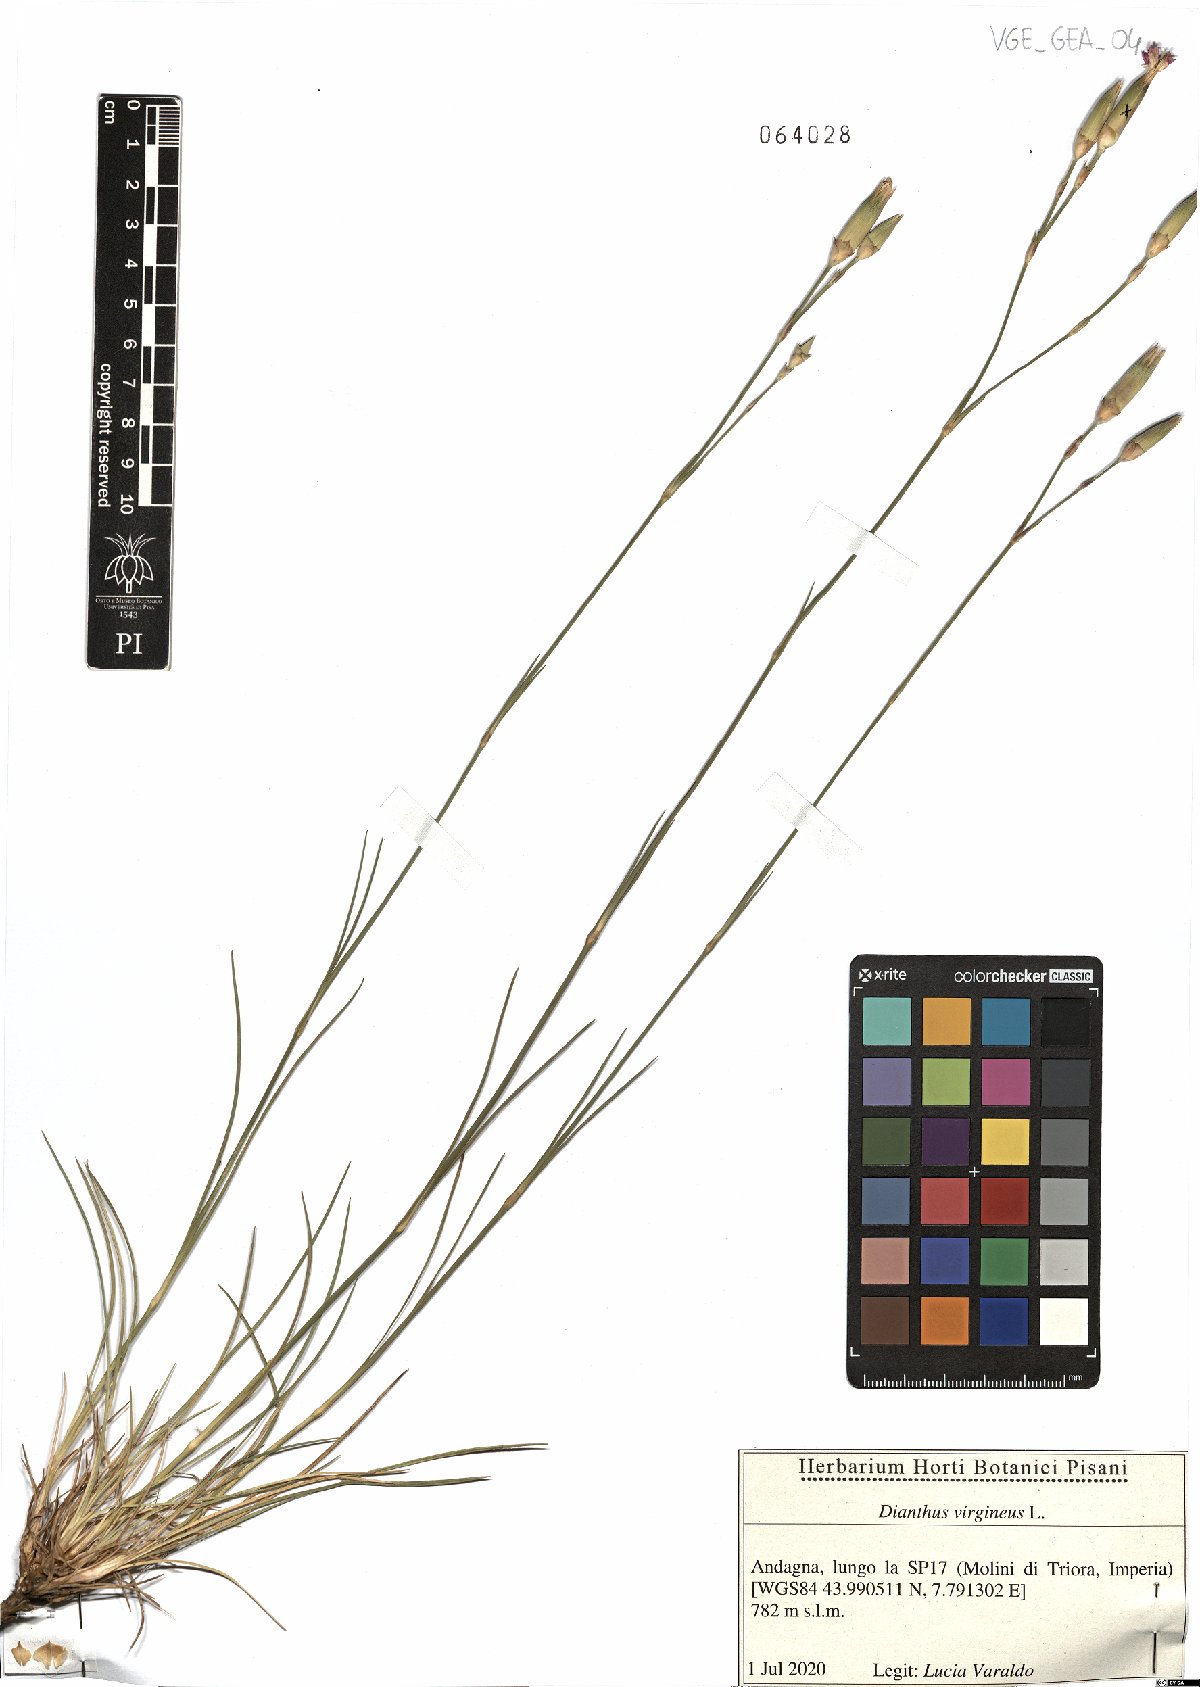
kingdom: Plantae
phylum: Tracheophyta
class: Magnoliopsida
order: Caryophyllales
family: Caryophyllaceae
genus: Dianthus
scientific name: Dianthus virgineus
